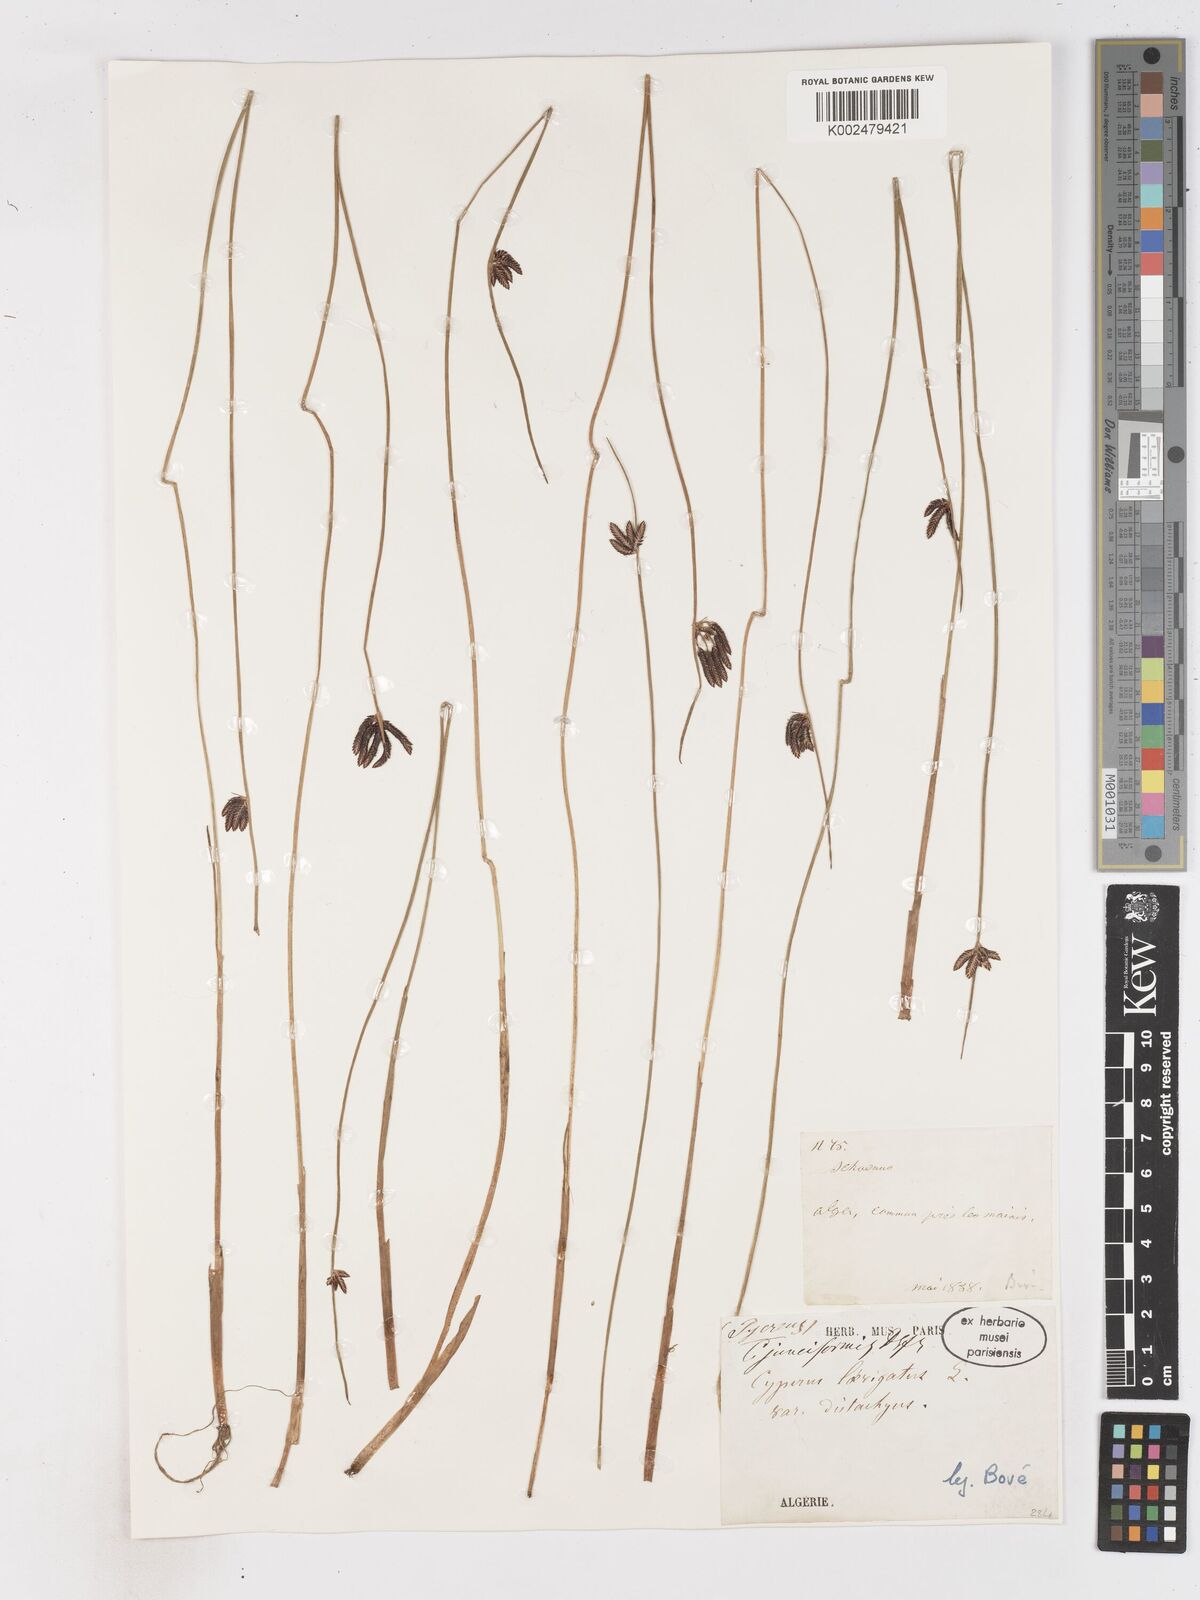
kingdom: Plantae
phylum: Tracheophyta
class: Liliopsida
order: Poales
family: Cyperaceae
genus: Cyperus
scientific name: Cyperus laevigatus
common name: Smooth flat sedge
